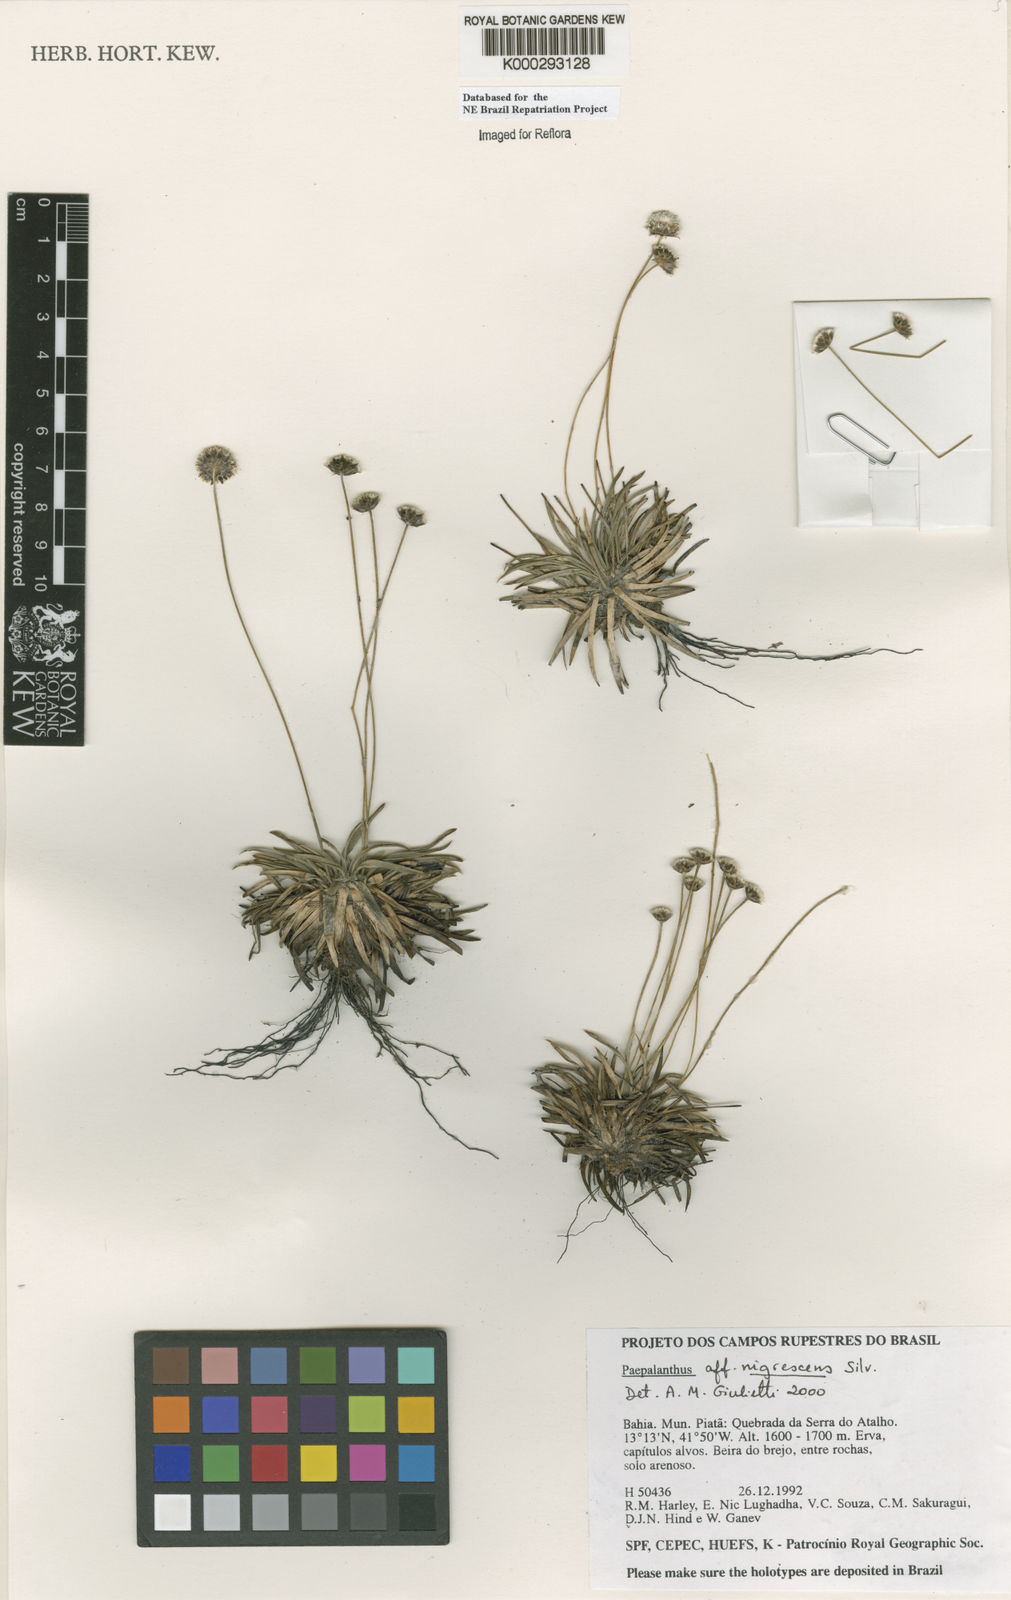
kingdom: Plantae
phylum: Tracheophyta
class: Liliopsida
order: Poales
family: Eriocaulaceae
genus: Paepalanthus
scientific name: Paepalanthus nigrescens
